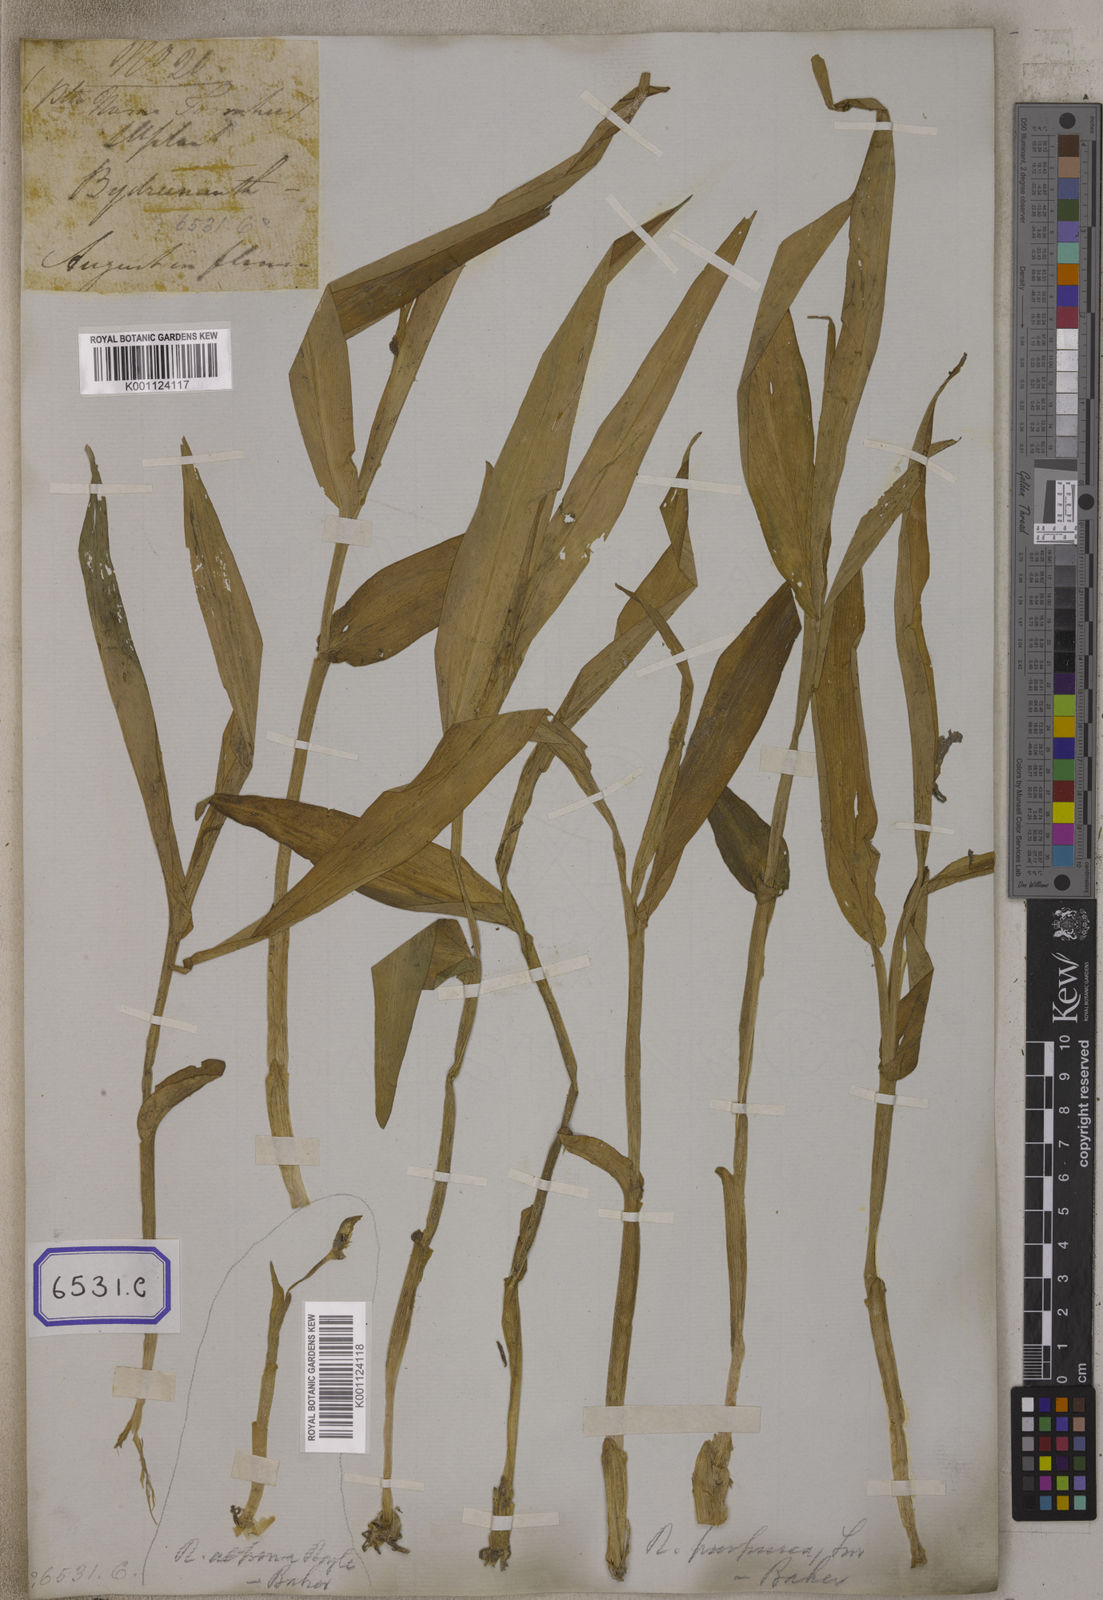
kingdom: Plantae
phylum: Tracheophyta
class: Liliopsida
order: Zingiberales
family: Zingiberaceae
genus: Cautleya
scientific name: Cautleya gracilis
